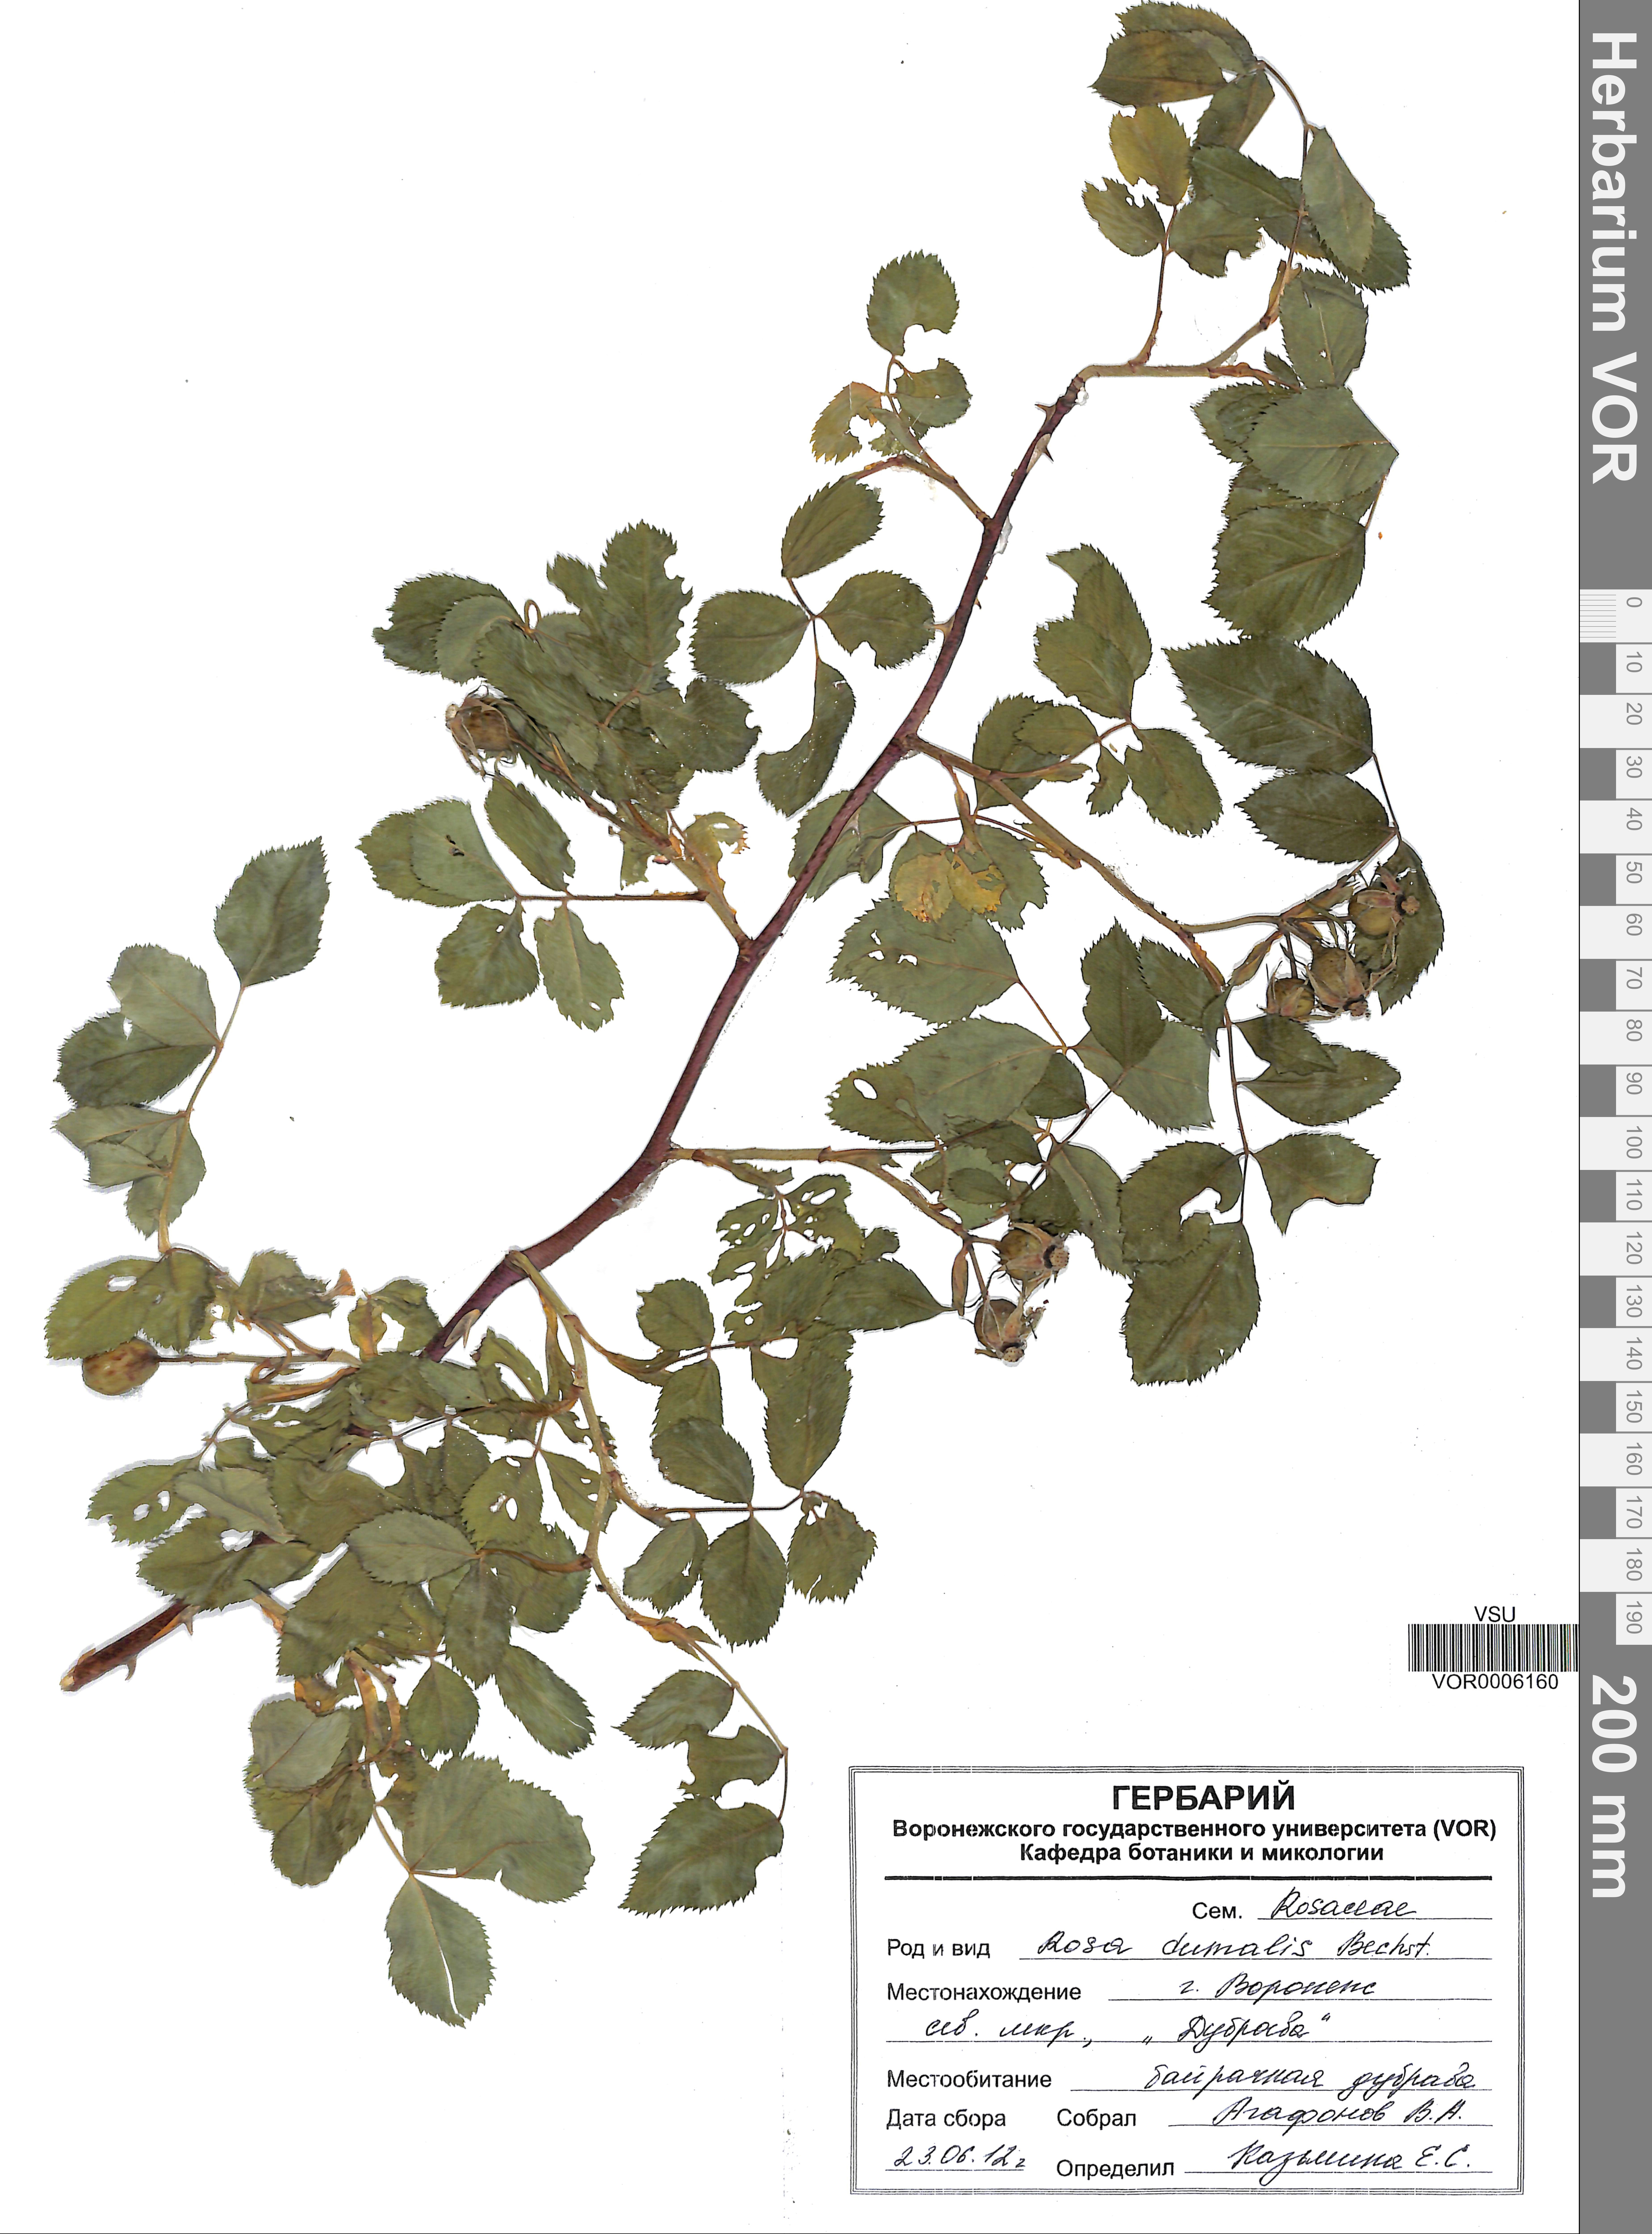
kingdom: Plantae
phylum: Tracheophyta
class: Magnoliopsida
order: Rosales
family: Rosaceae
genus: Rosa
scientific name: Rosa dumalis
